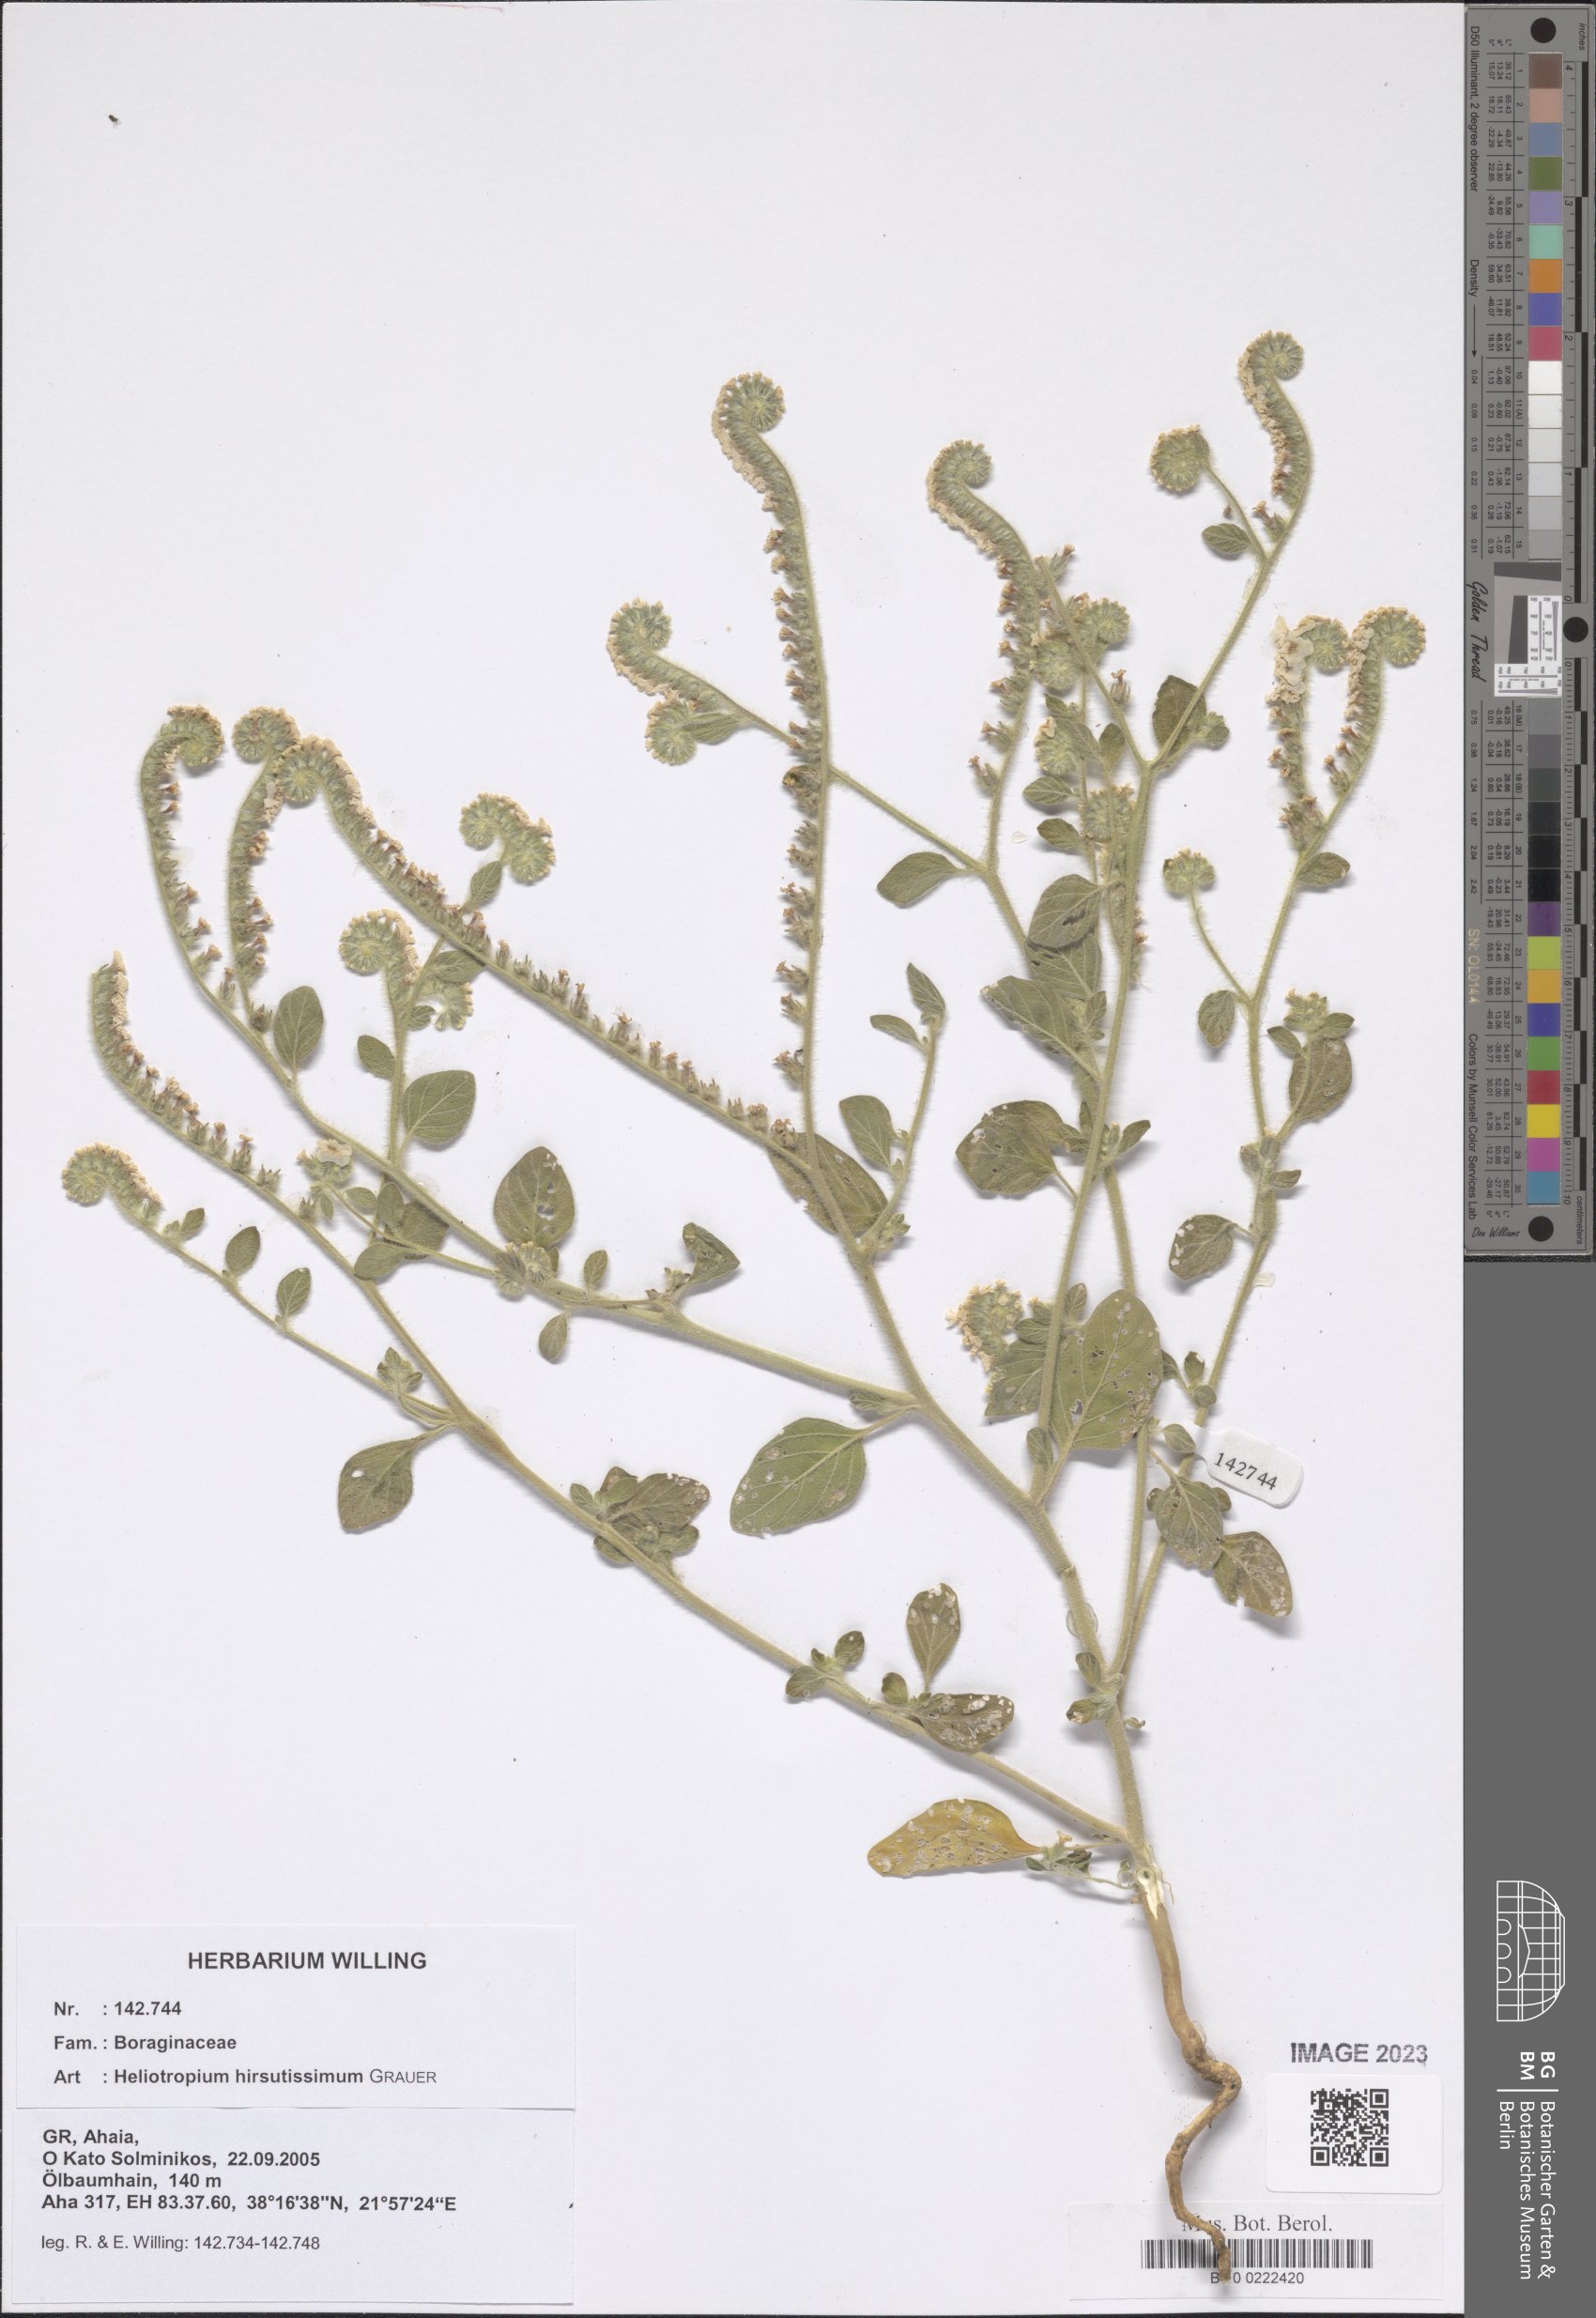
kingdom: Plantae
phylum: Tracheophyta
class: Magnoliopsida
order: Boraginales
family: Heliotropiaceae
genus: Heliotropium
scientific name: Heliotropium hirsutissimum
